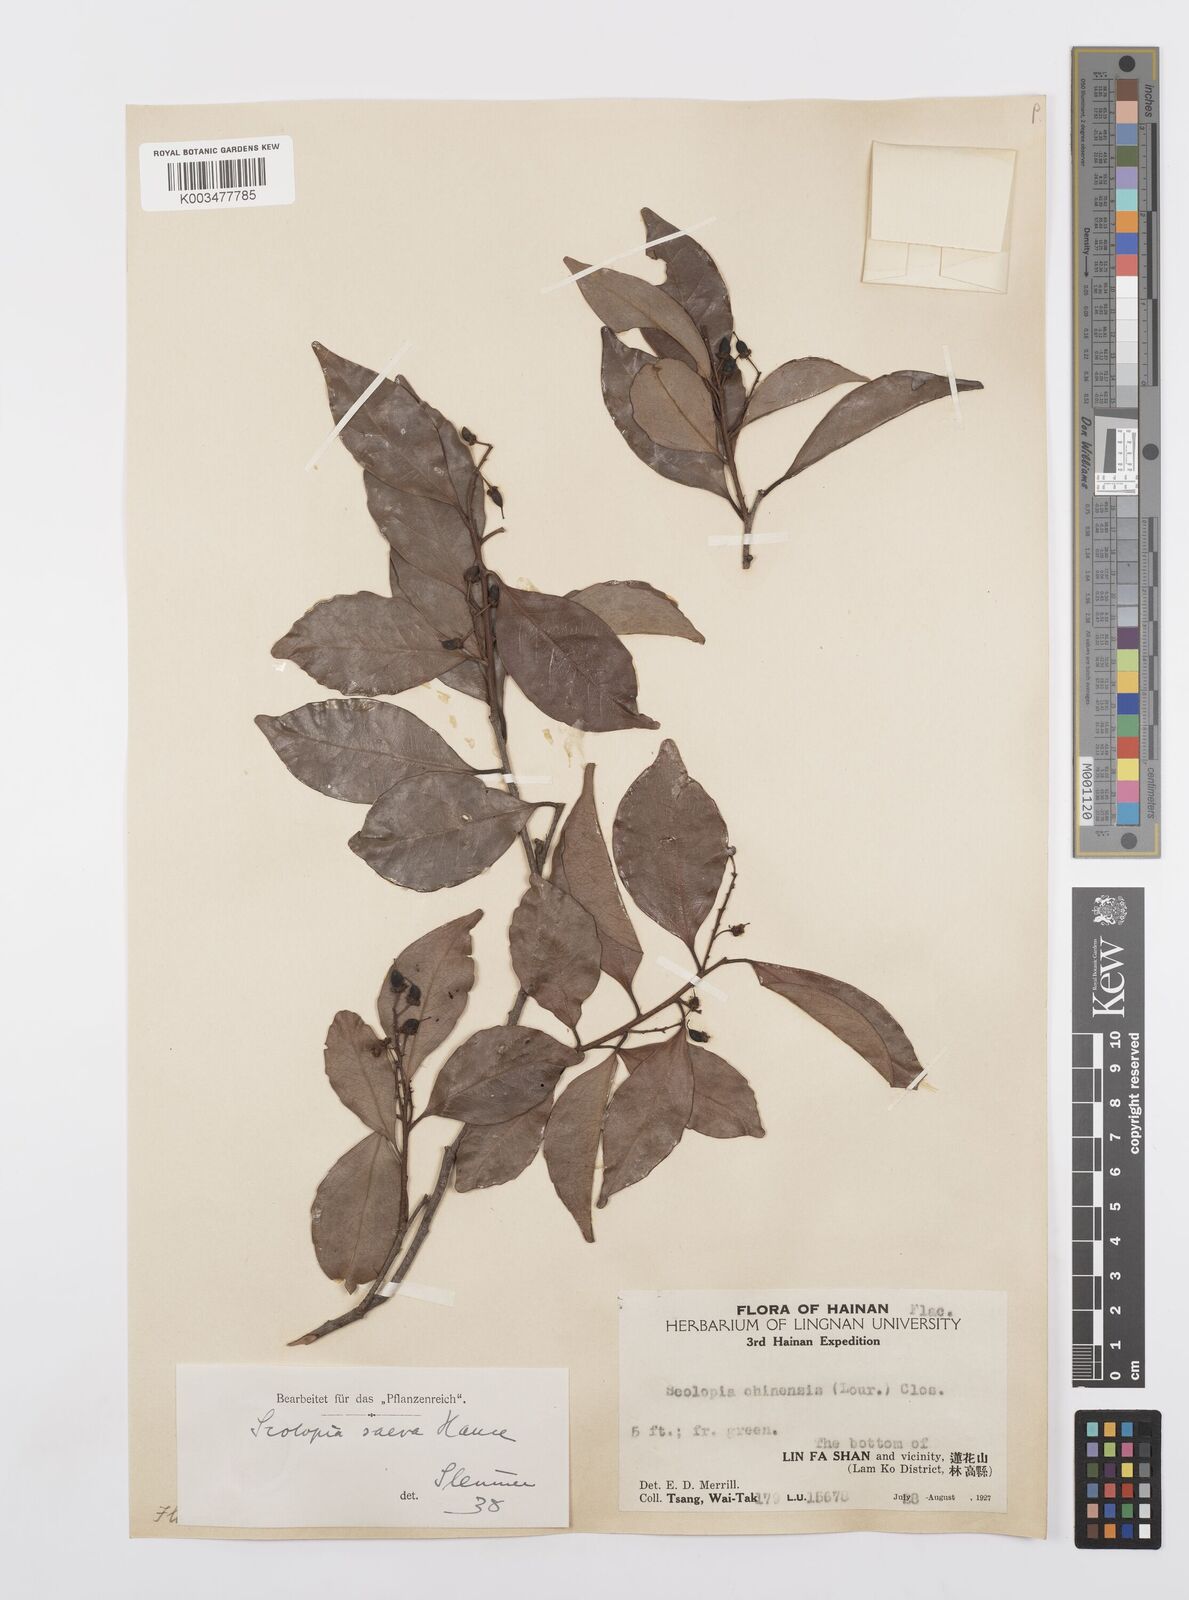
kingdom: Plantae
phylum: Tracheophyta
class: Magnoliopsida
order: Malpighiales
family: Salicaceae
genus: Scolopia
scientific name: Scolopia saeva
